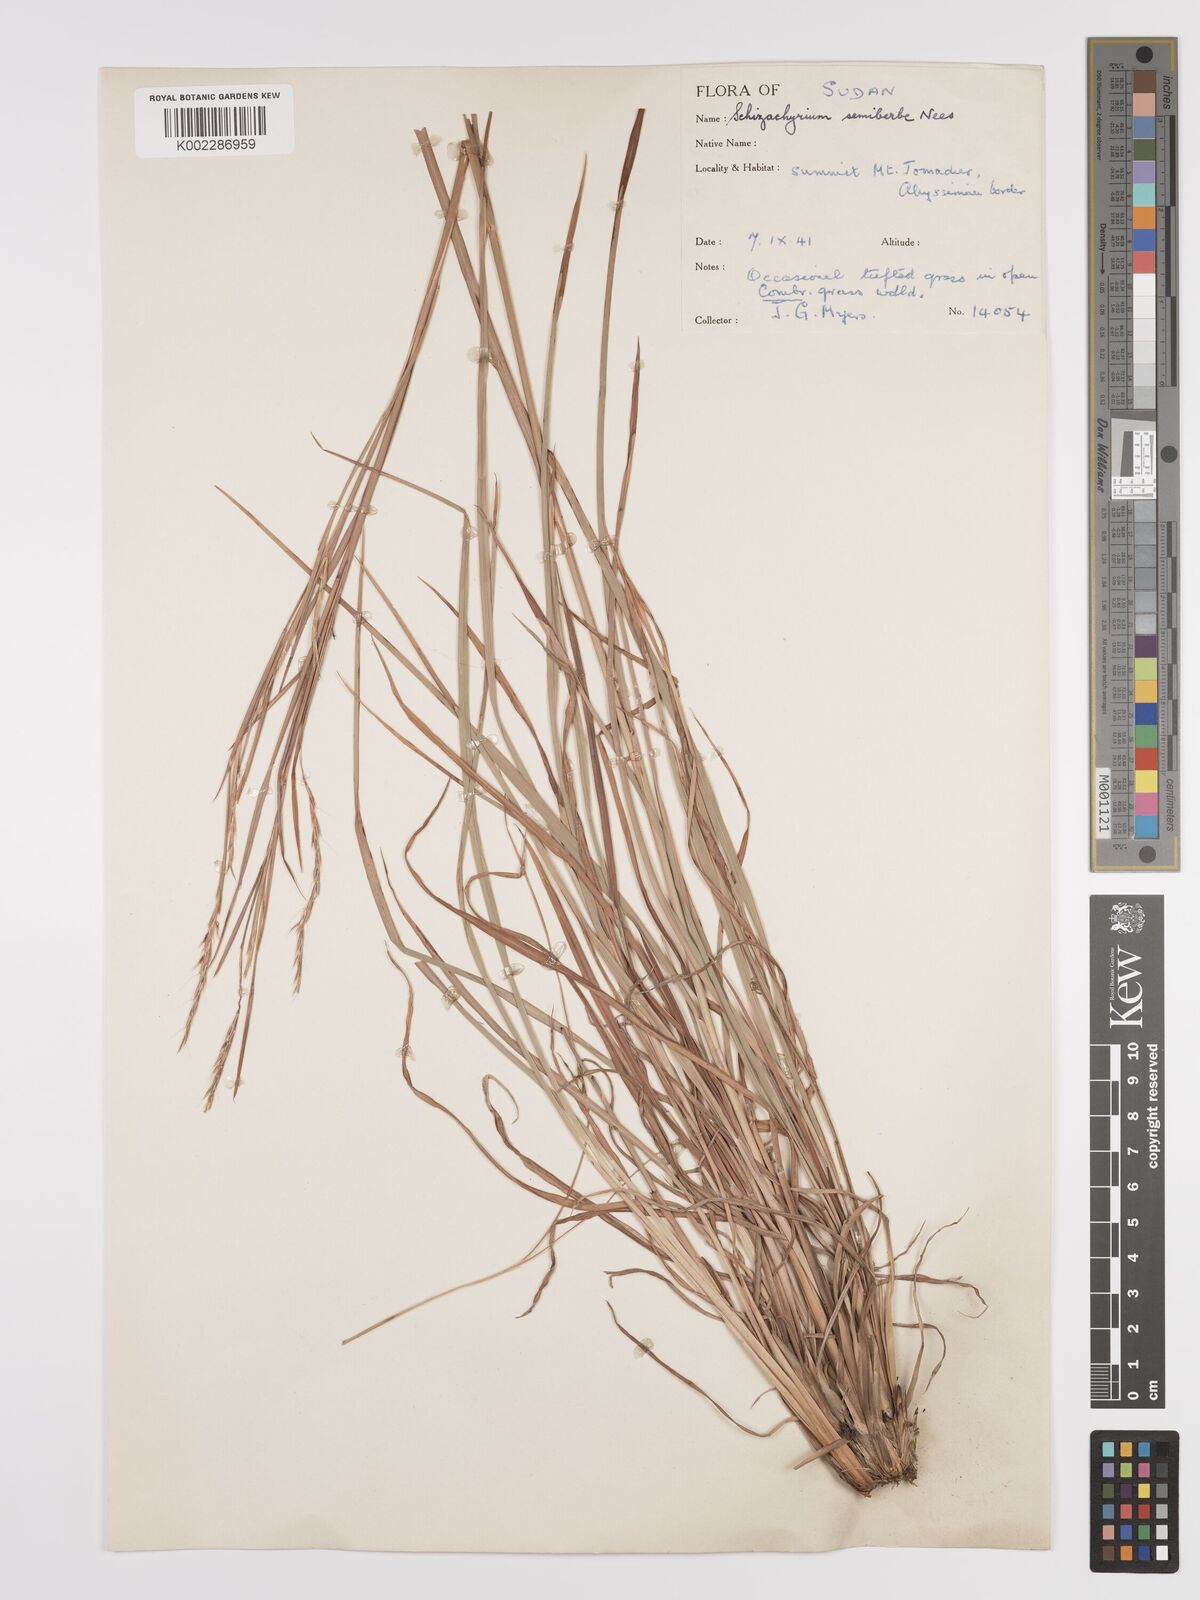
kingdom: Plantae
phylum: Tracheophyta
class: Liliopsida
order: Poales
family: Poaceae
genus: Schizachyrium
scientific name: Schizachyrium sanguineum
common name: Crimson bluestem
